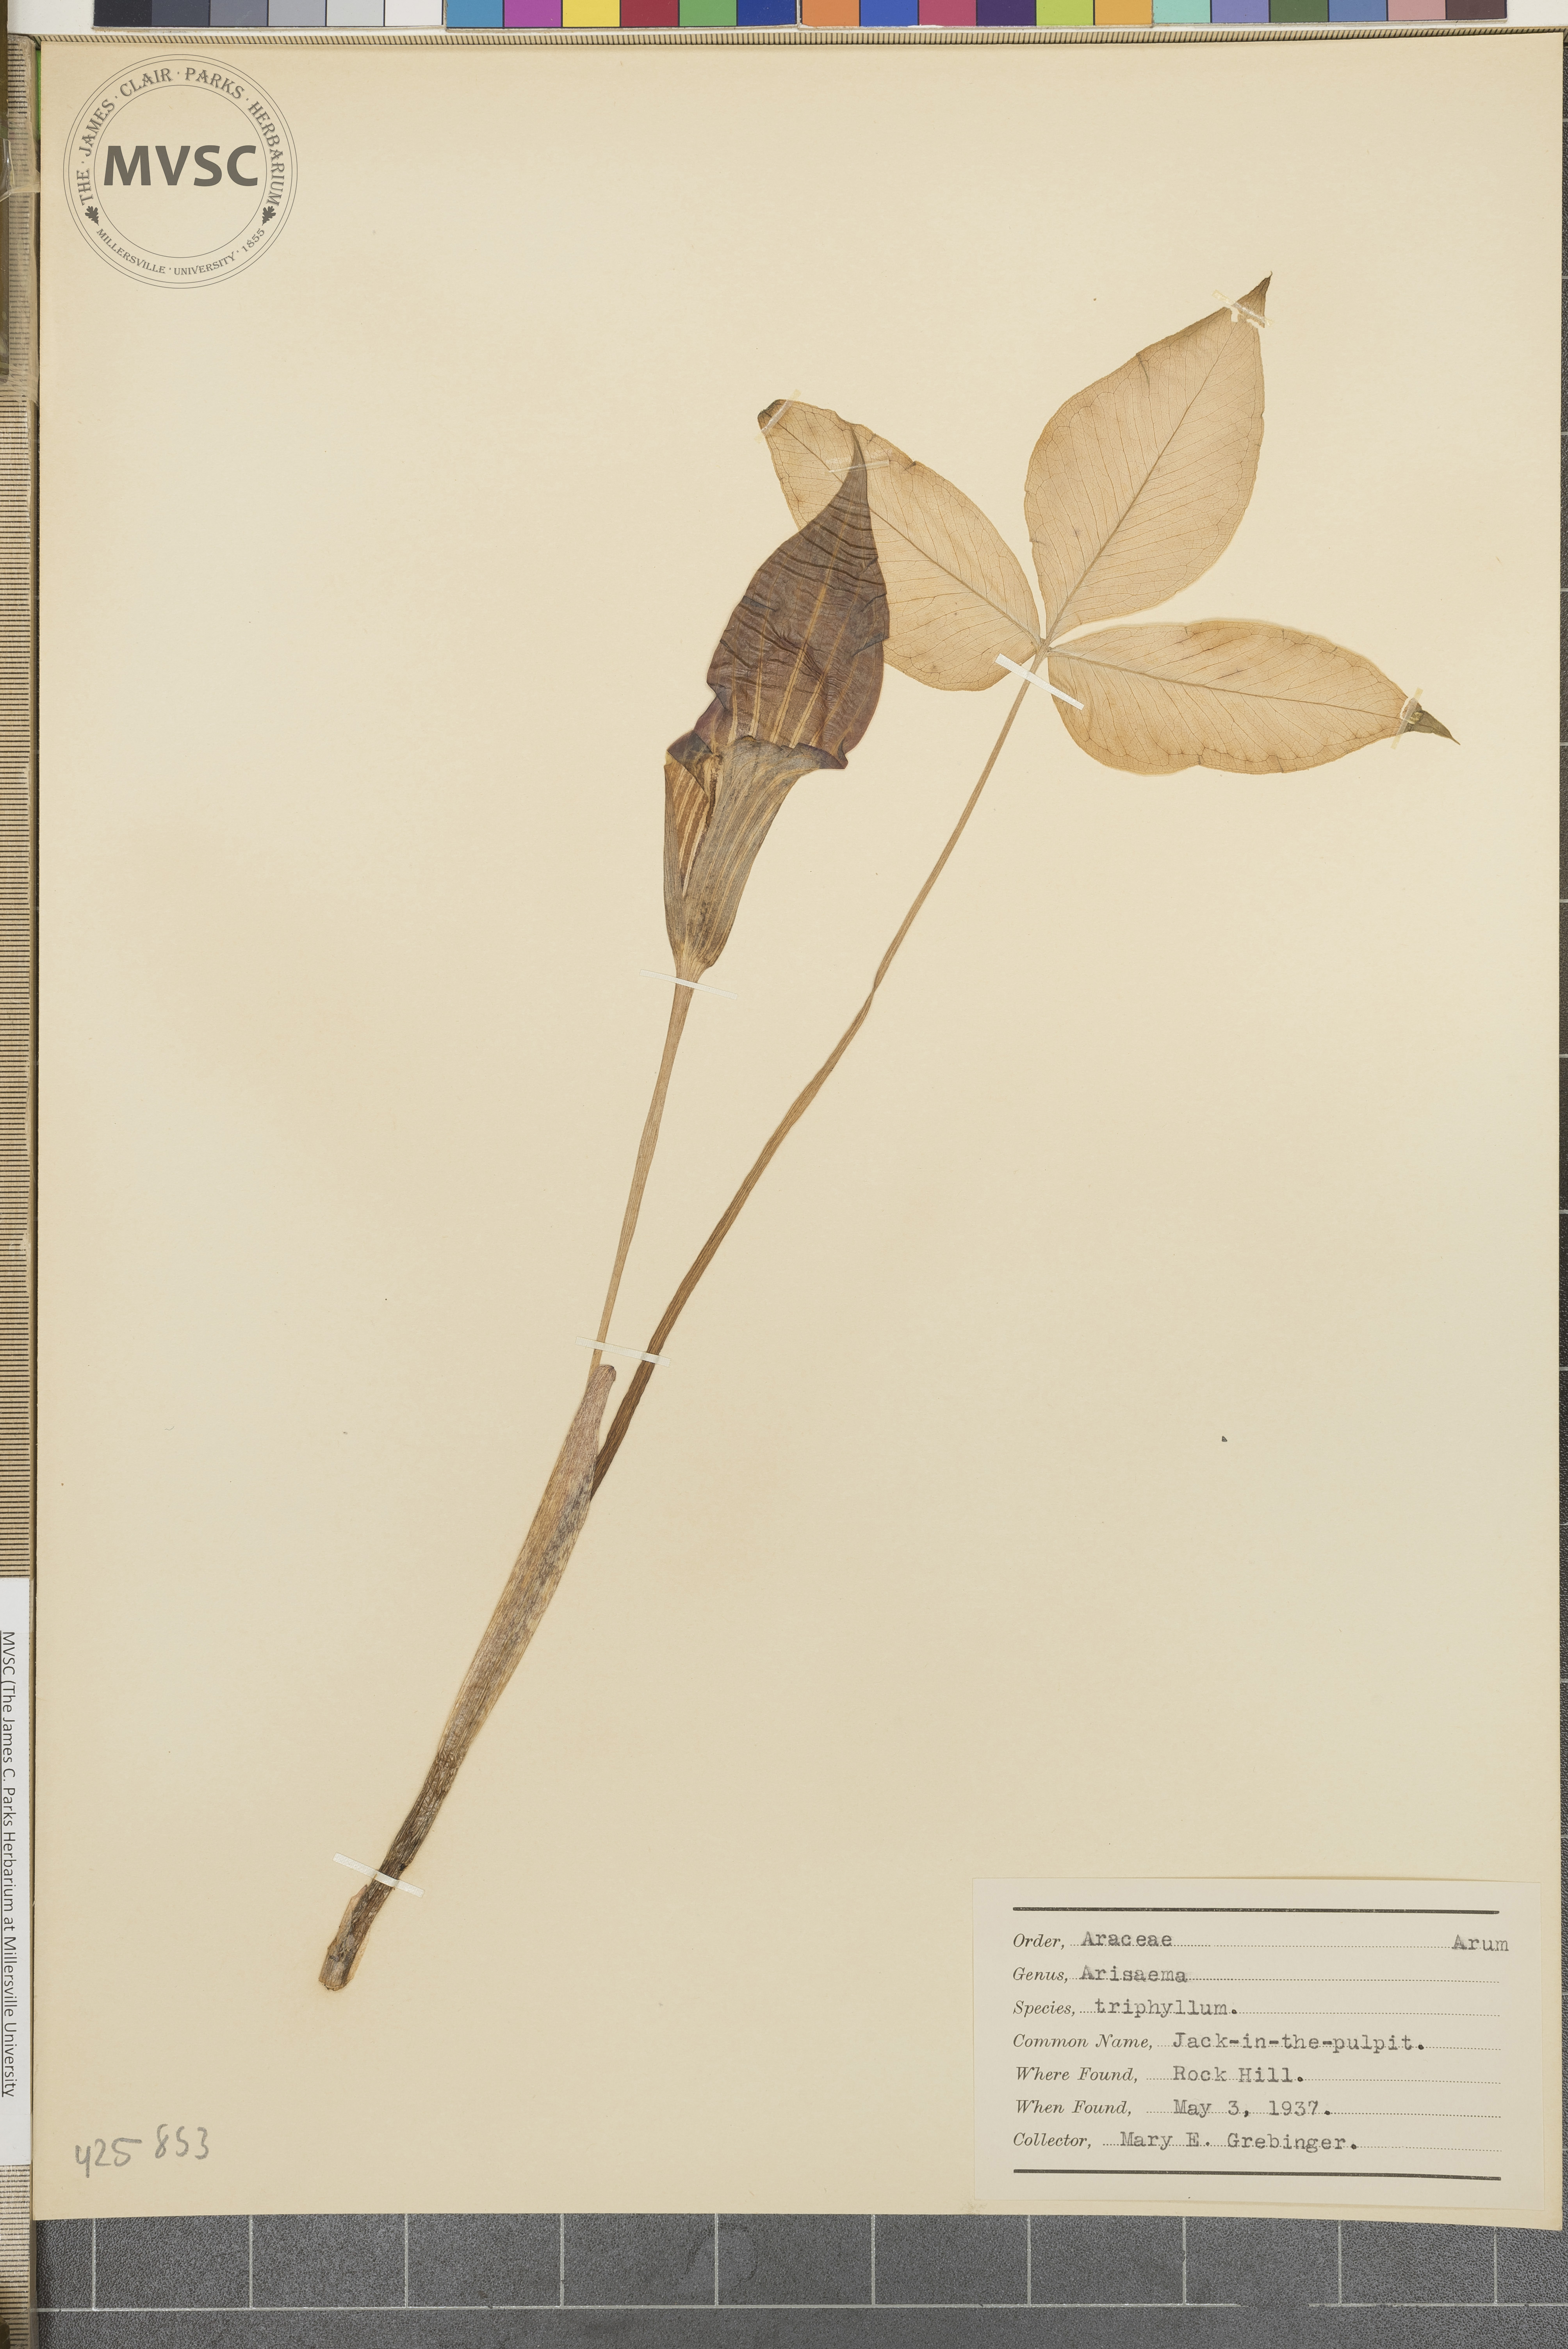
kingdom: Plantae
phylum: Tracheophyta
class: Liliopsida
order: Alismatales
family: Araceae
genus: Arisaema
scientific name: Arisaema triphyllum
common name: Jack-in-the-pulpit
